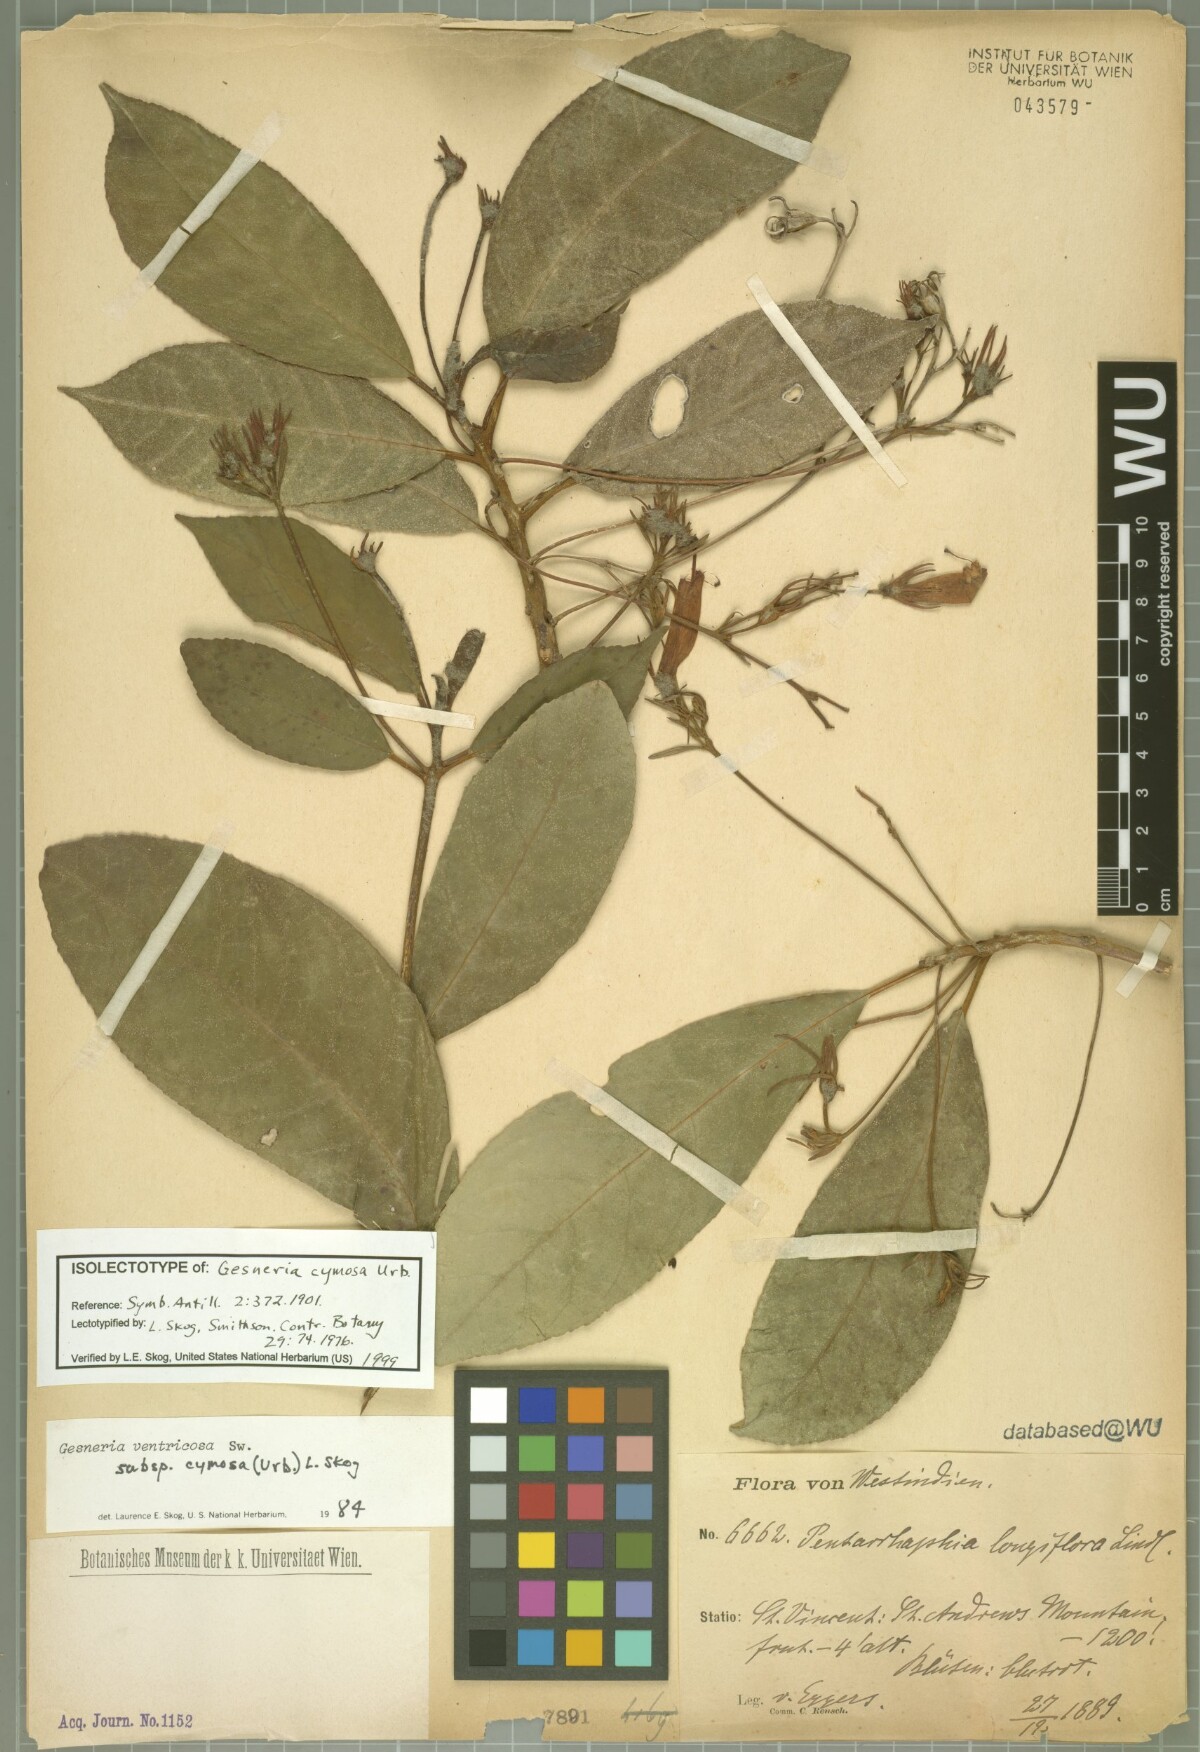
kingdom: Plantae
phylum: Tracheophyta
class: Magnoliopsida
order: Lamiales
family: Gesneriaceae
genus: Gesneria
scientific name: Gesneria ventricosa
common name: Dare meat
